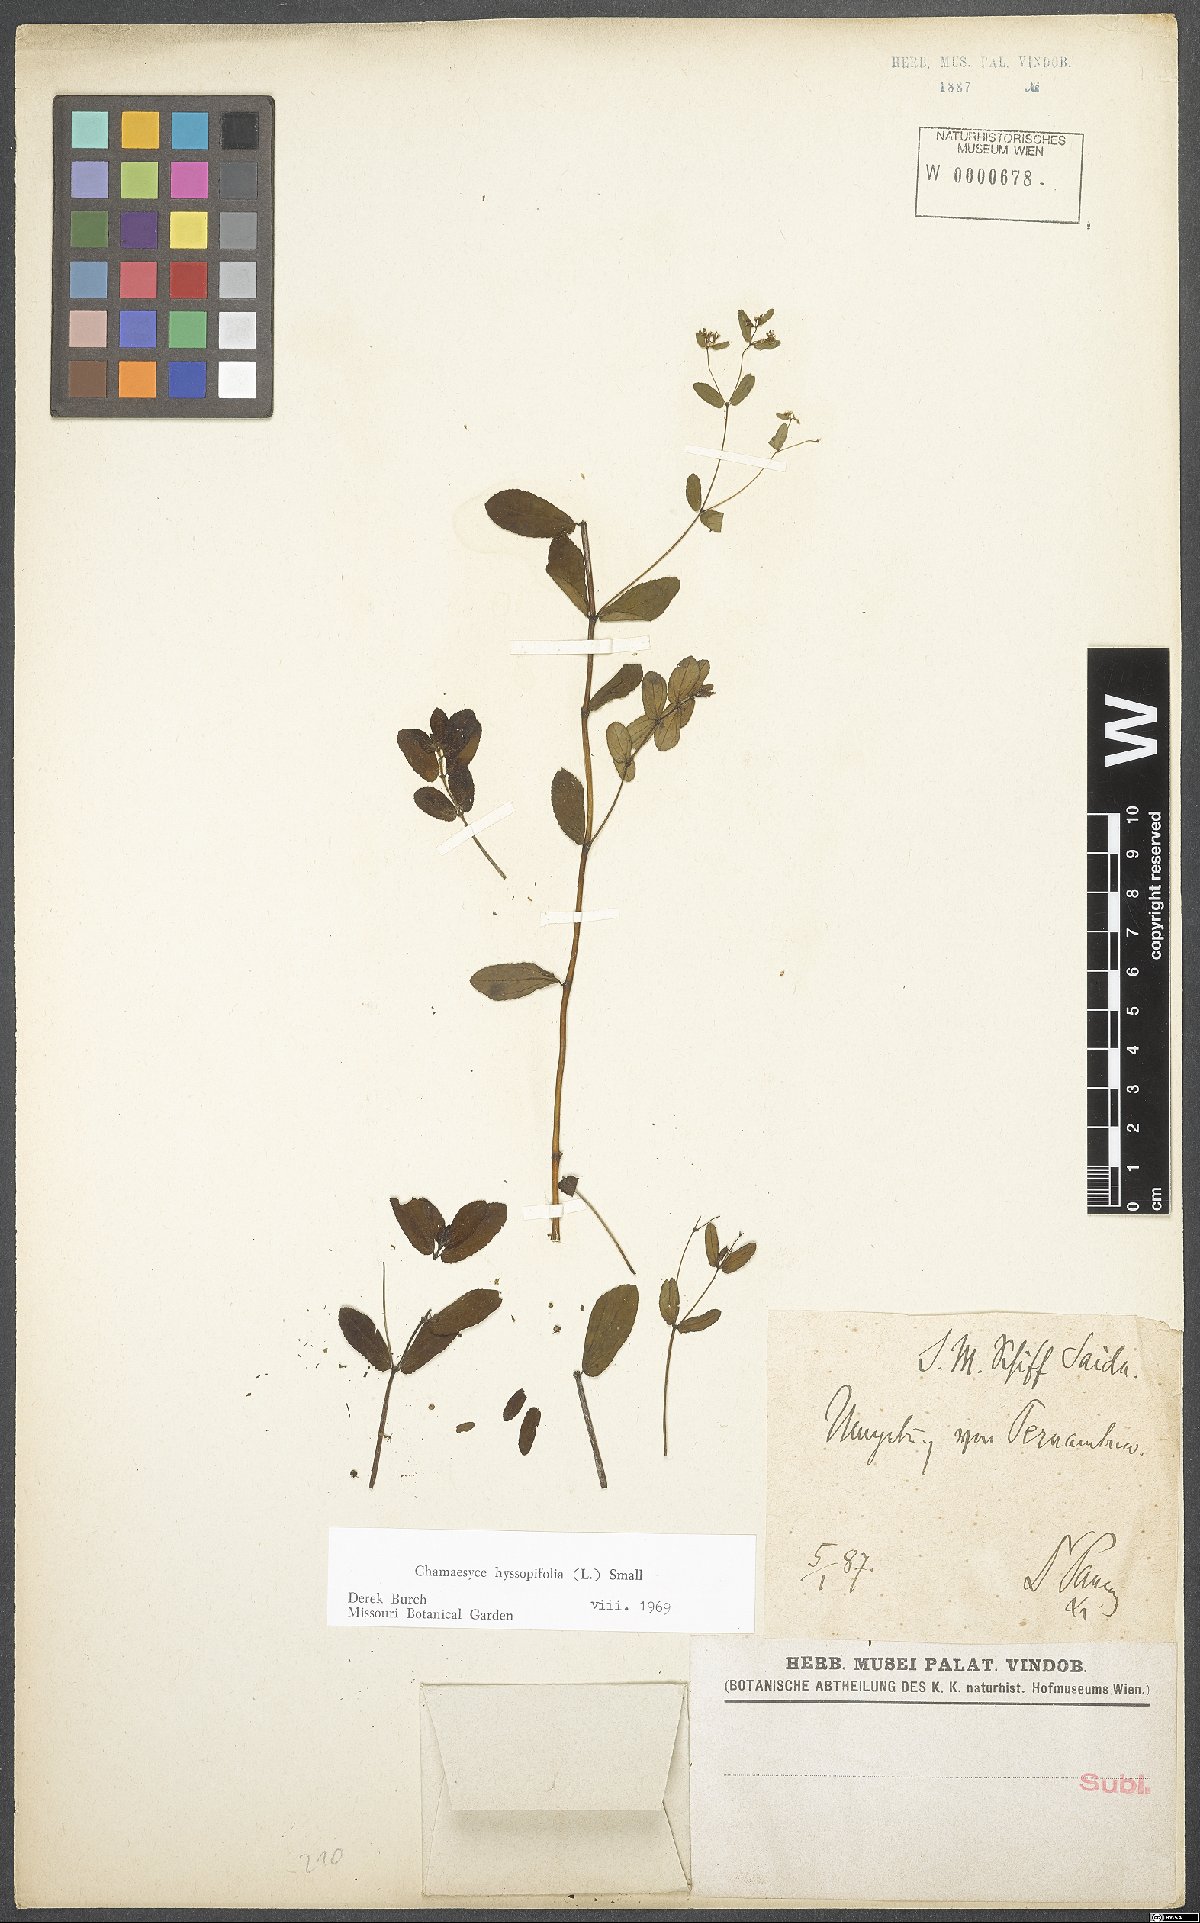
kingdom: Plantae
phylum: Tracheophyta
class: Magnoliopsida
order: Malpighiales
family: Euphorbiaceae
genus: Euphorbia
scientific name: Euphorbia hyssopifolia
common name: Hyssopleaf sandmat
